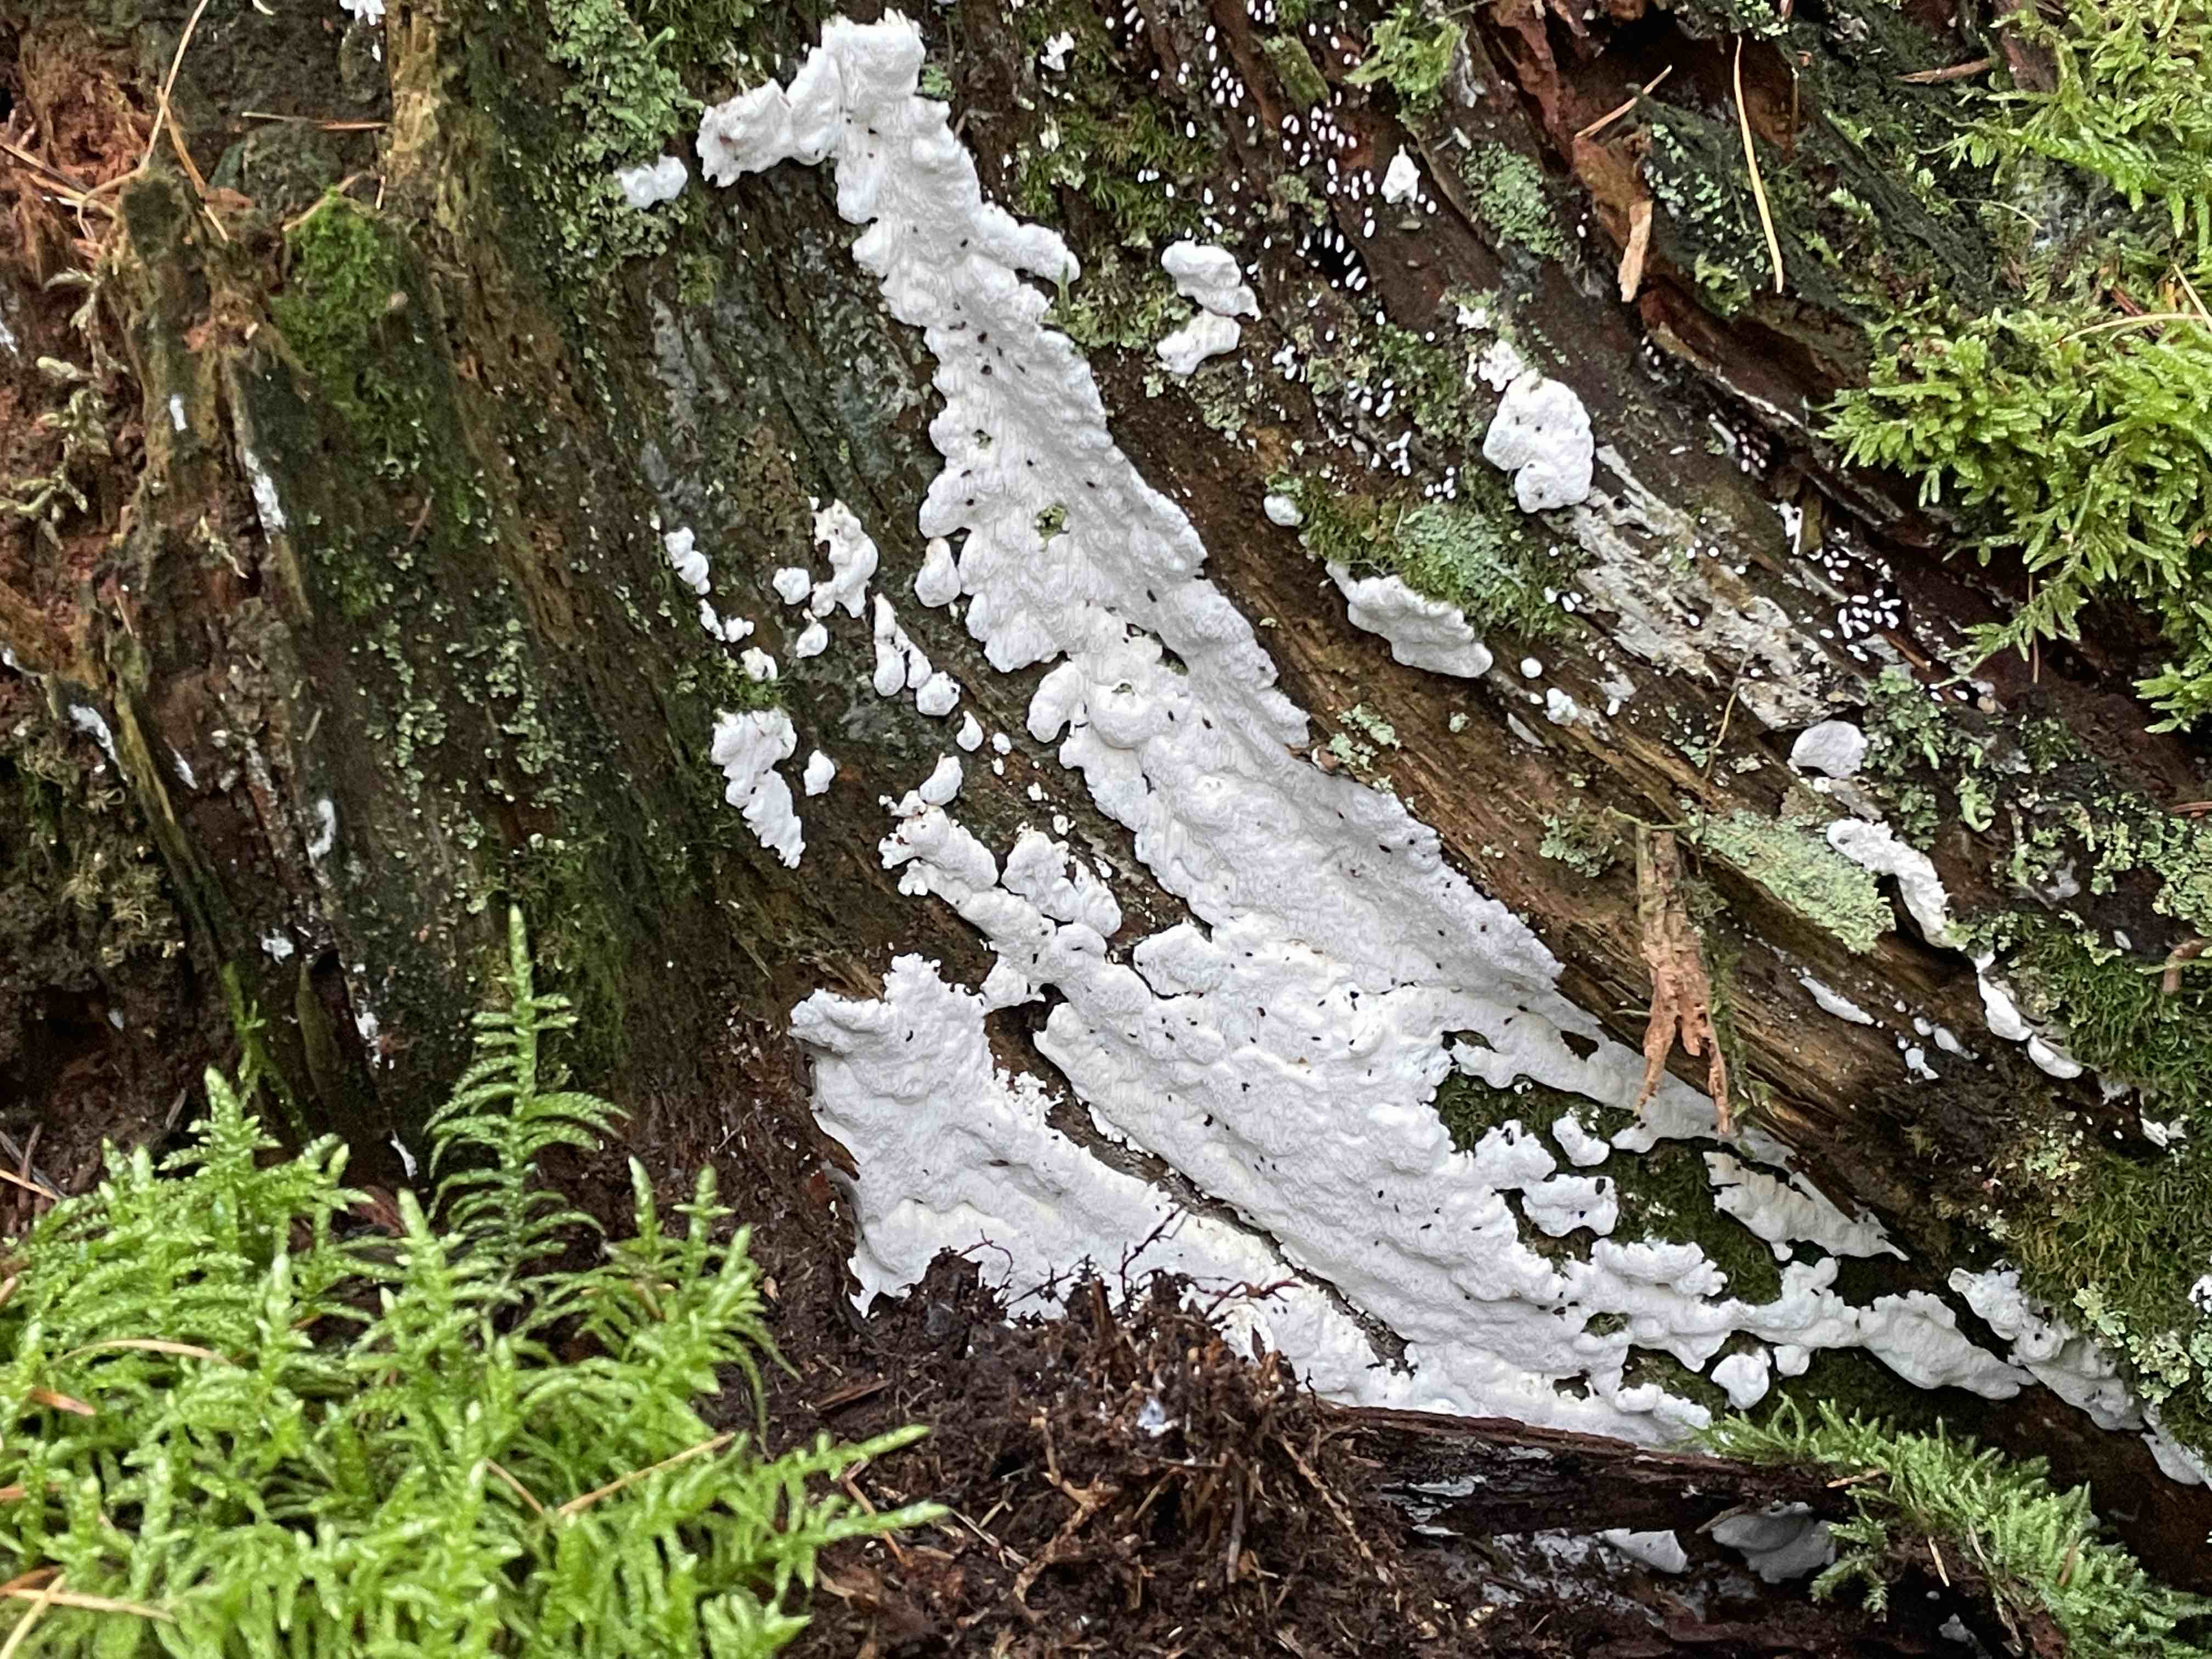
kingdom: Fungi
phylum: Basidiomycota
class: Agaricomycetes
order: Polyporales
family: Fomitopsidaceae
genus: Neoantrodia
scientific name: Neoantrodia serialis
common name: række-sejporesvamp
